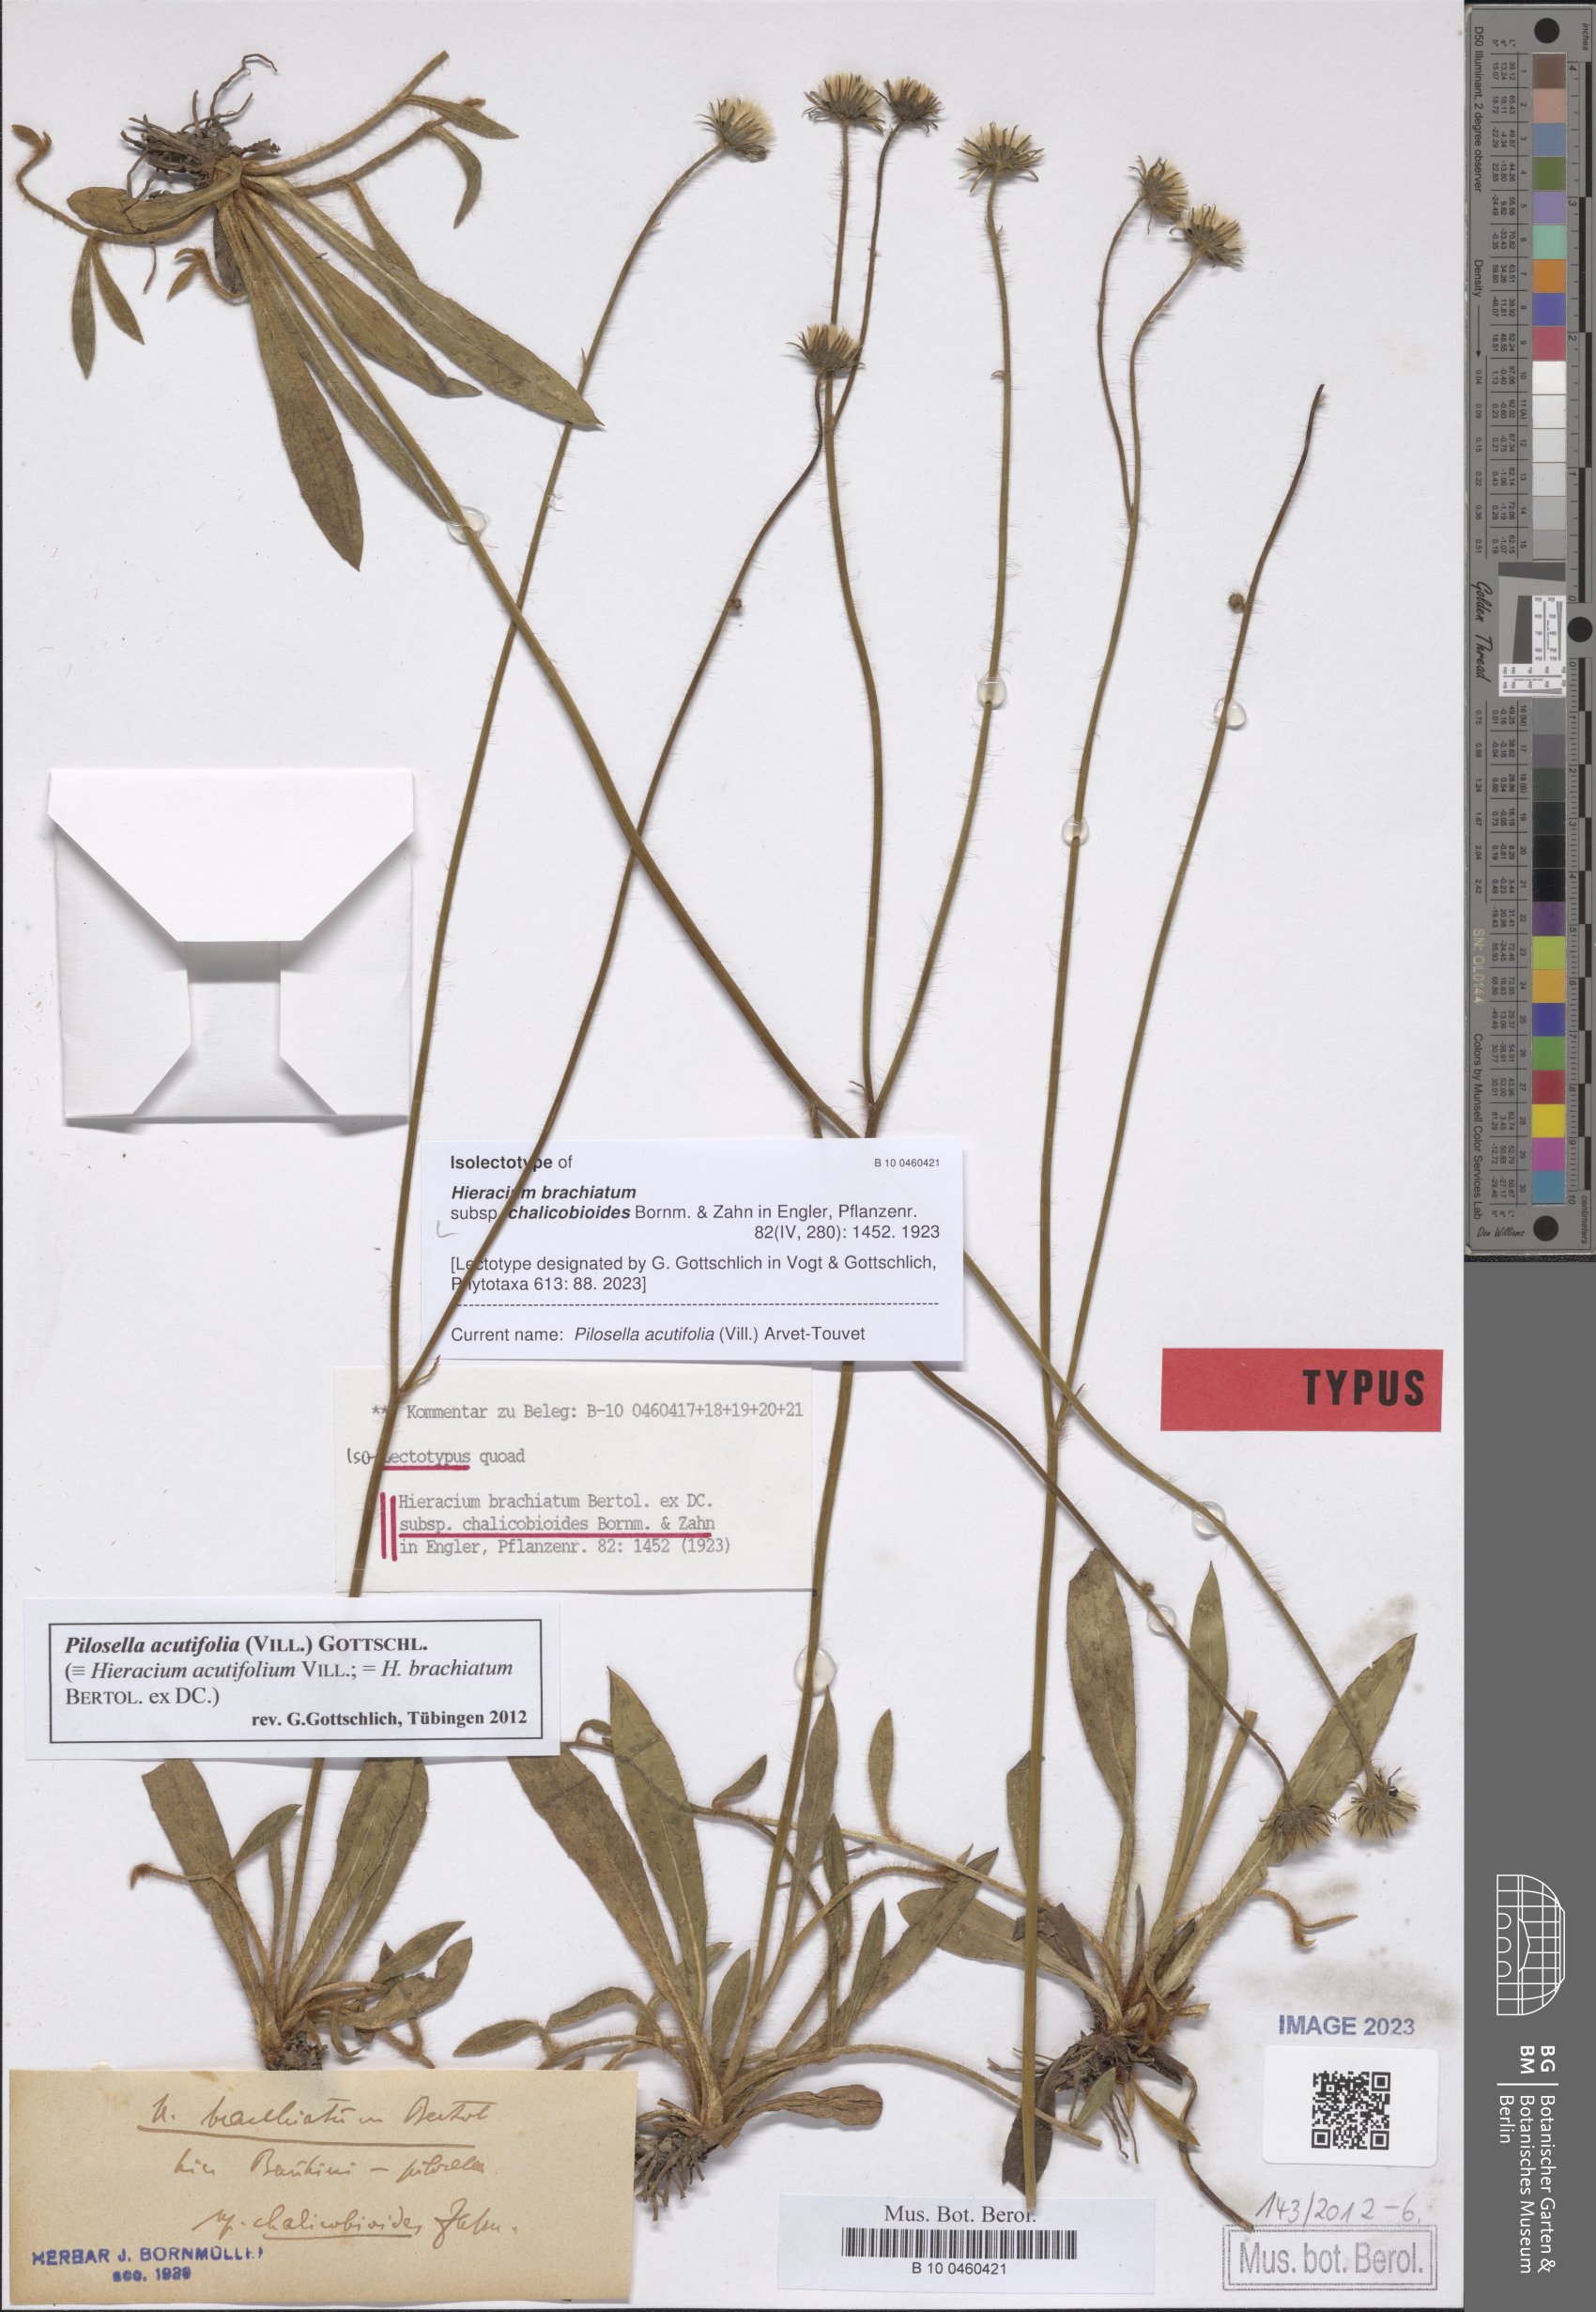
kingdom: Plantae
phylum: Tracheophyta
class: Magnoliopsida
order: Asterales
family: Asteraceae
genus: Pilosella
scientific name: Pilosella acutifolia
